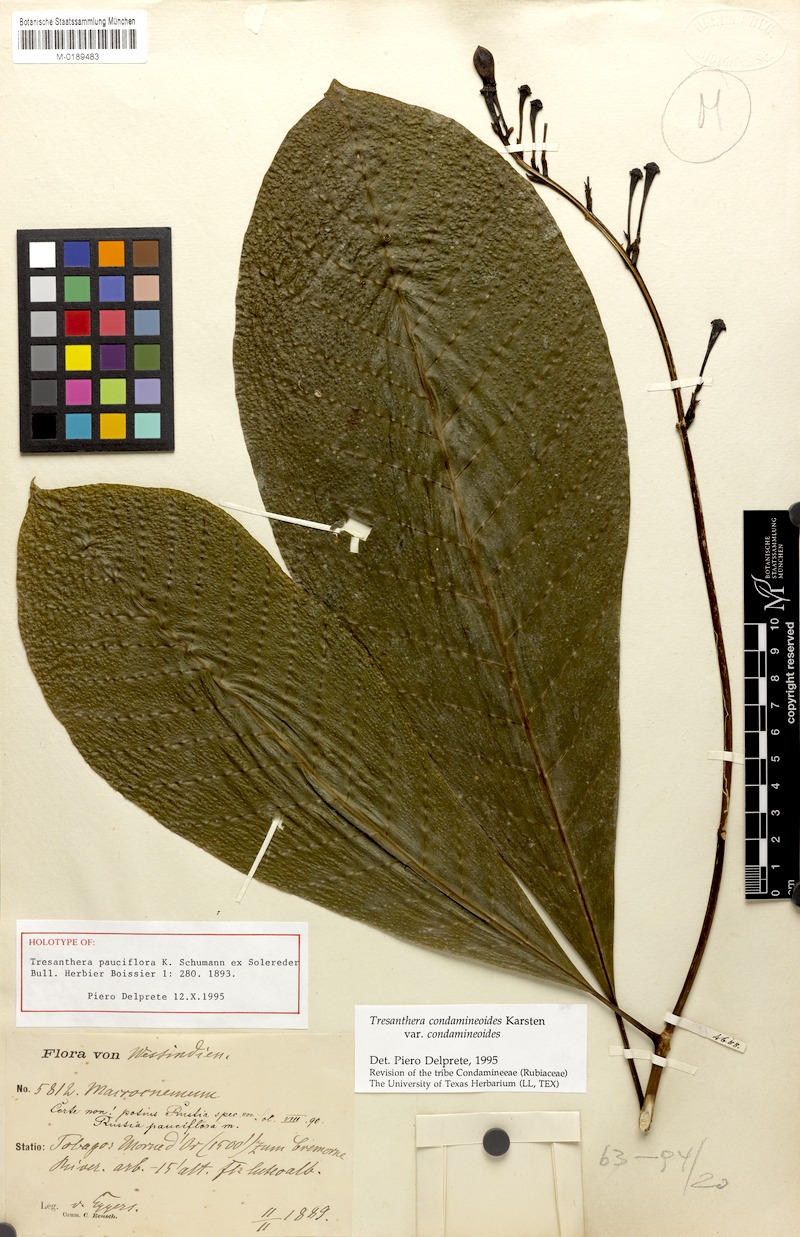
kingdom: Plantae
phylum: Tracheophyta
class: Magnoliopsida
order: Gentianales
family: Rubiaceae
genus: Rustia
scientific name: Rustia condamineoides
